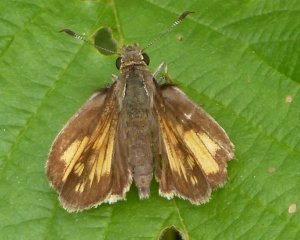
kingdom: Animalia
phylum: Arthropoda
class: Insecta
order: Lepidoptera
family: Hesperiidae
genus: Lon
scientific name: Lon hobomok
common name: Hobomok Skipper
